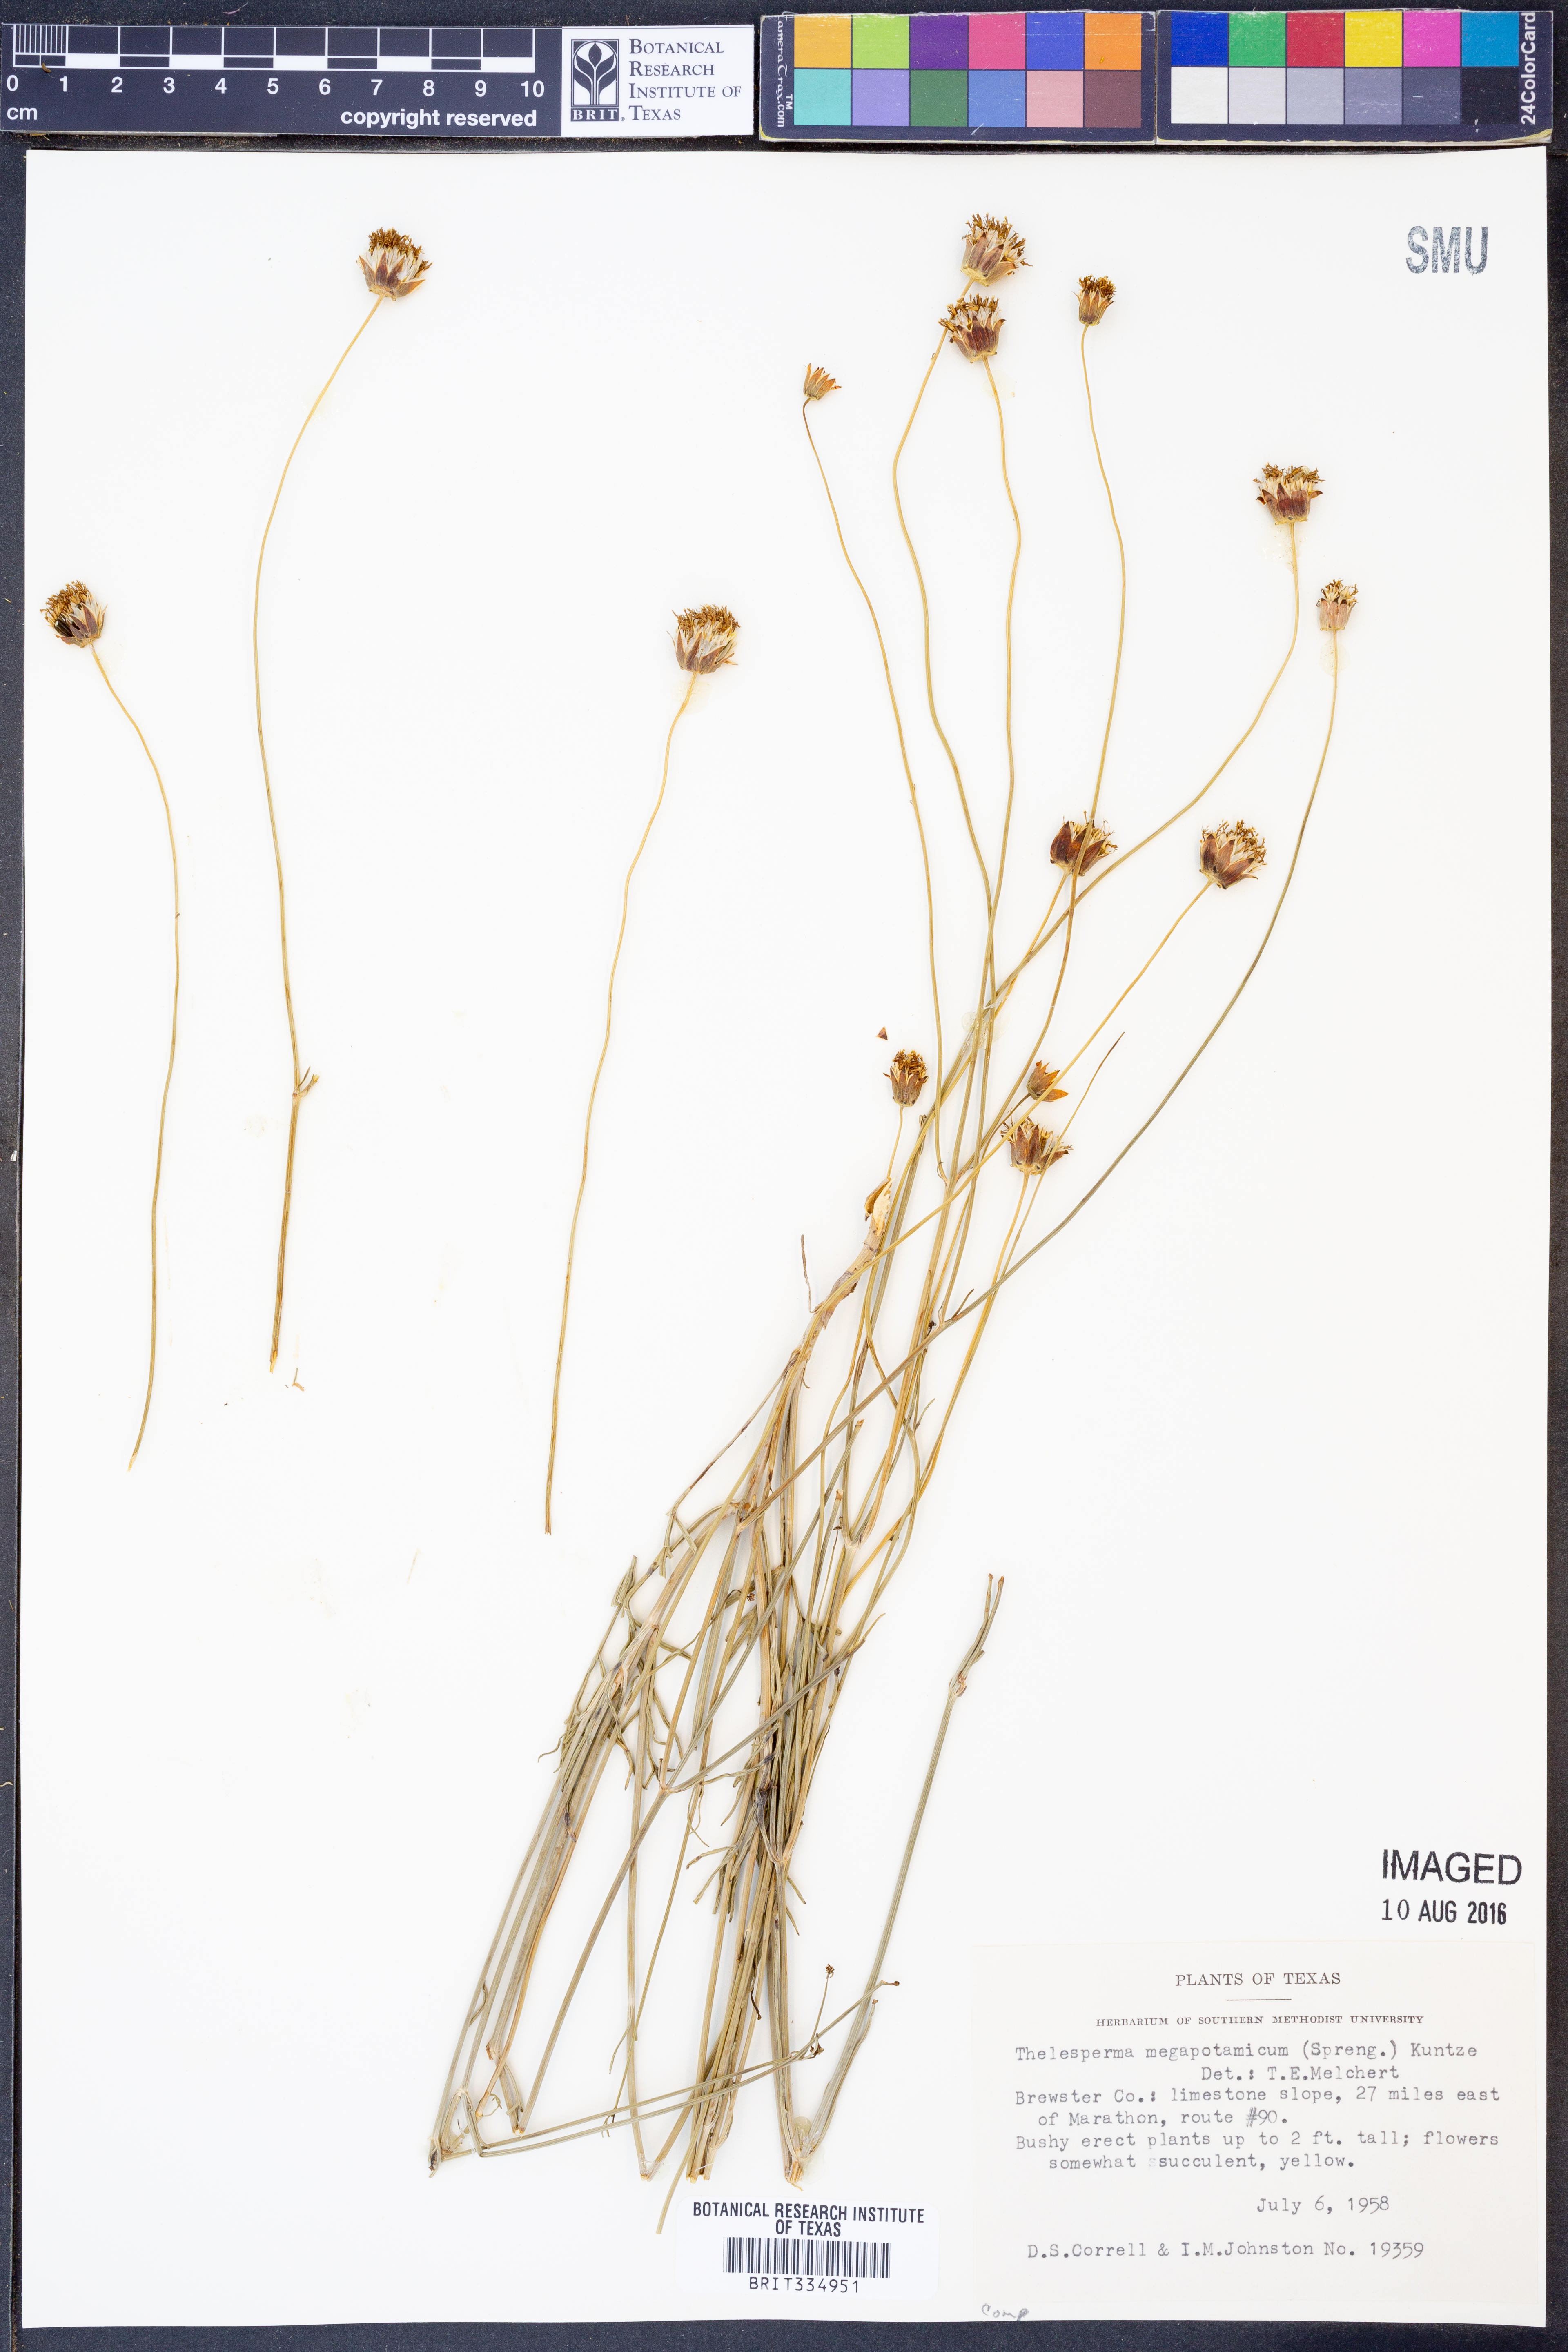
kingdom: Plantae
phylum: Tracheophyta
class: Magnoliopsida
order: Asterales
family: Asteraceae
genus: Thelesperma
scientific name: Thelesperma megapotamicum
